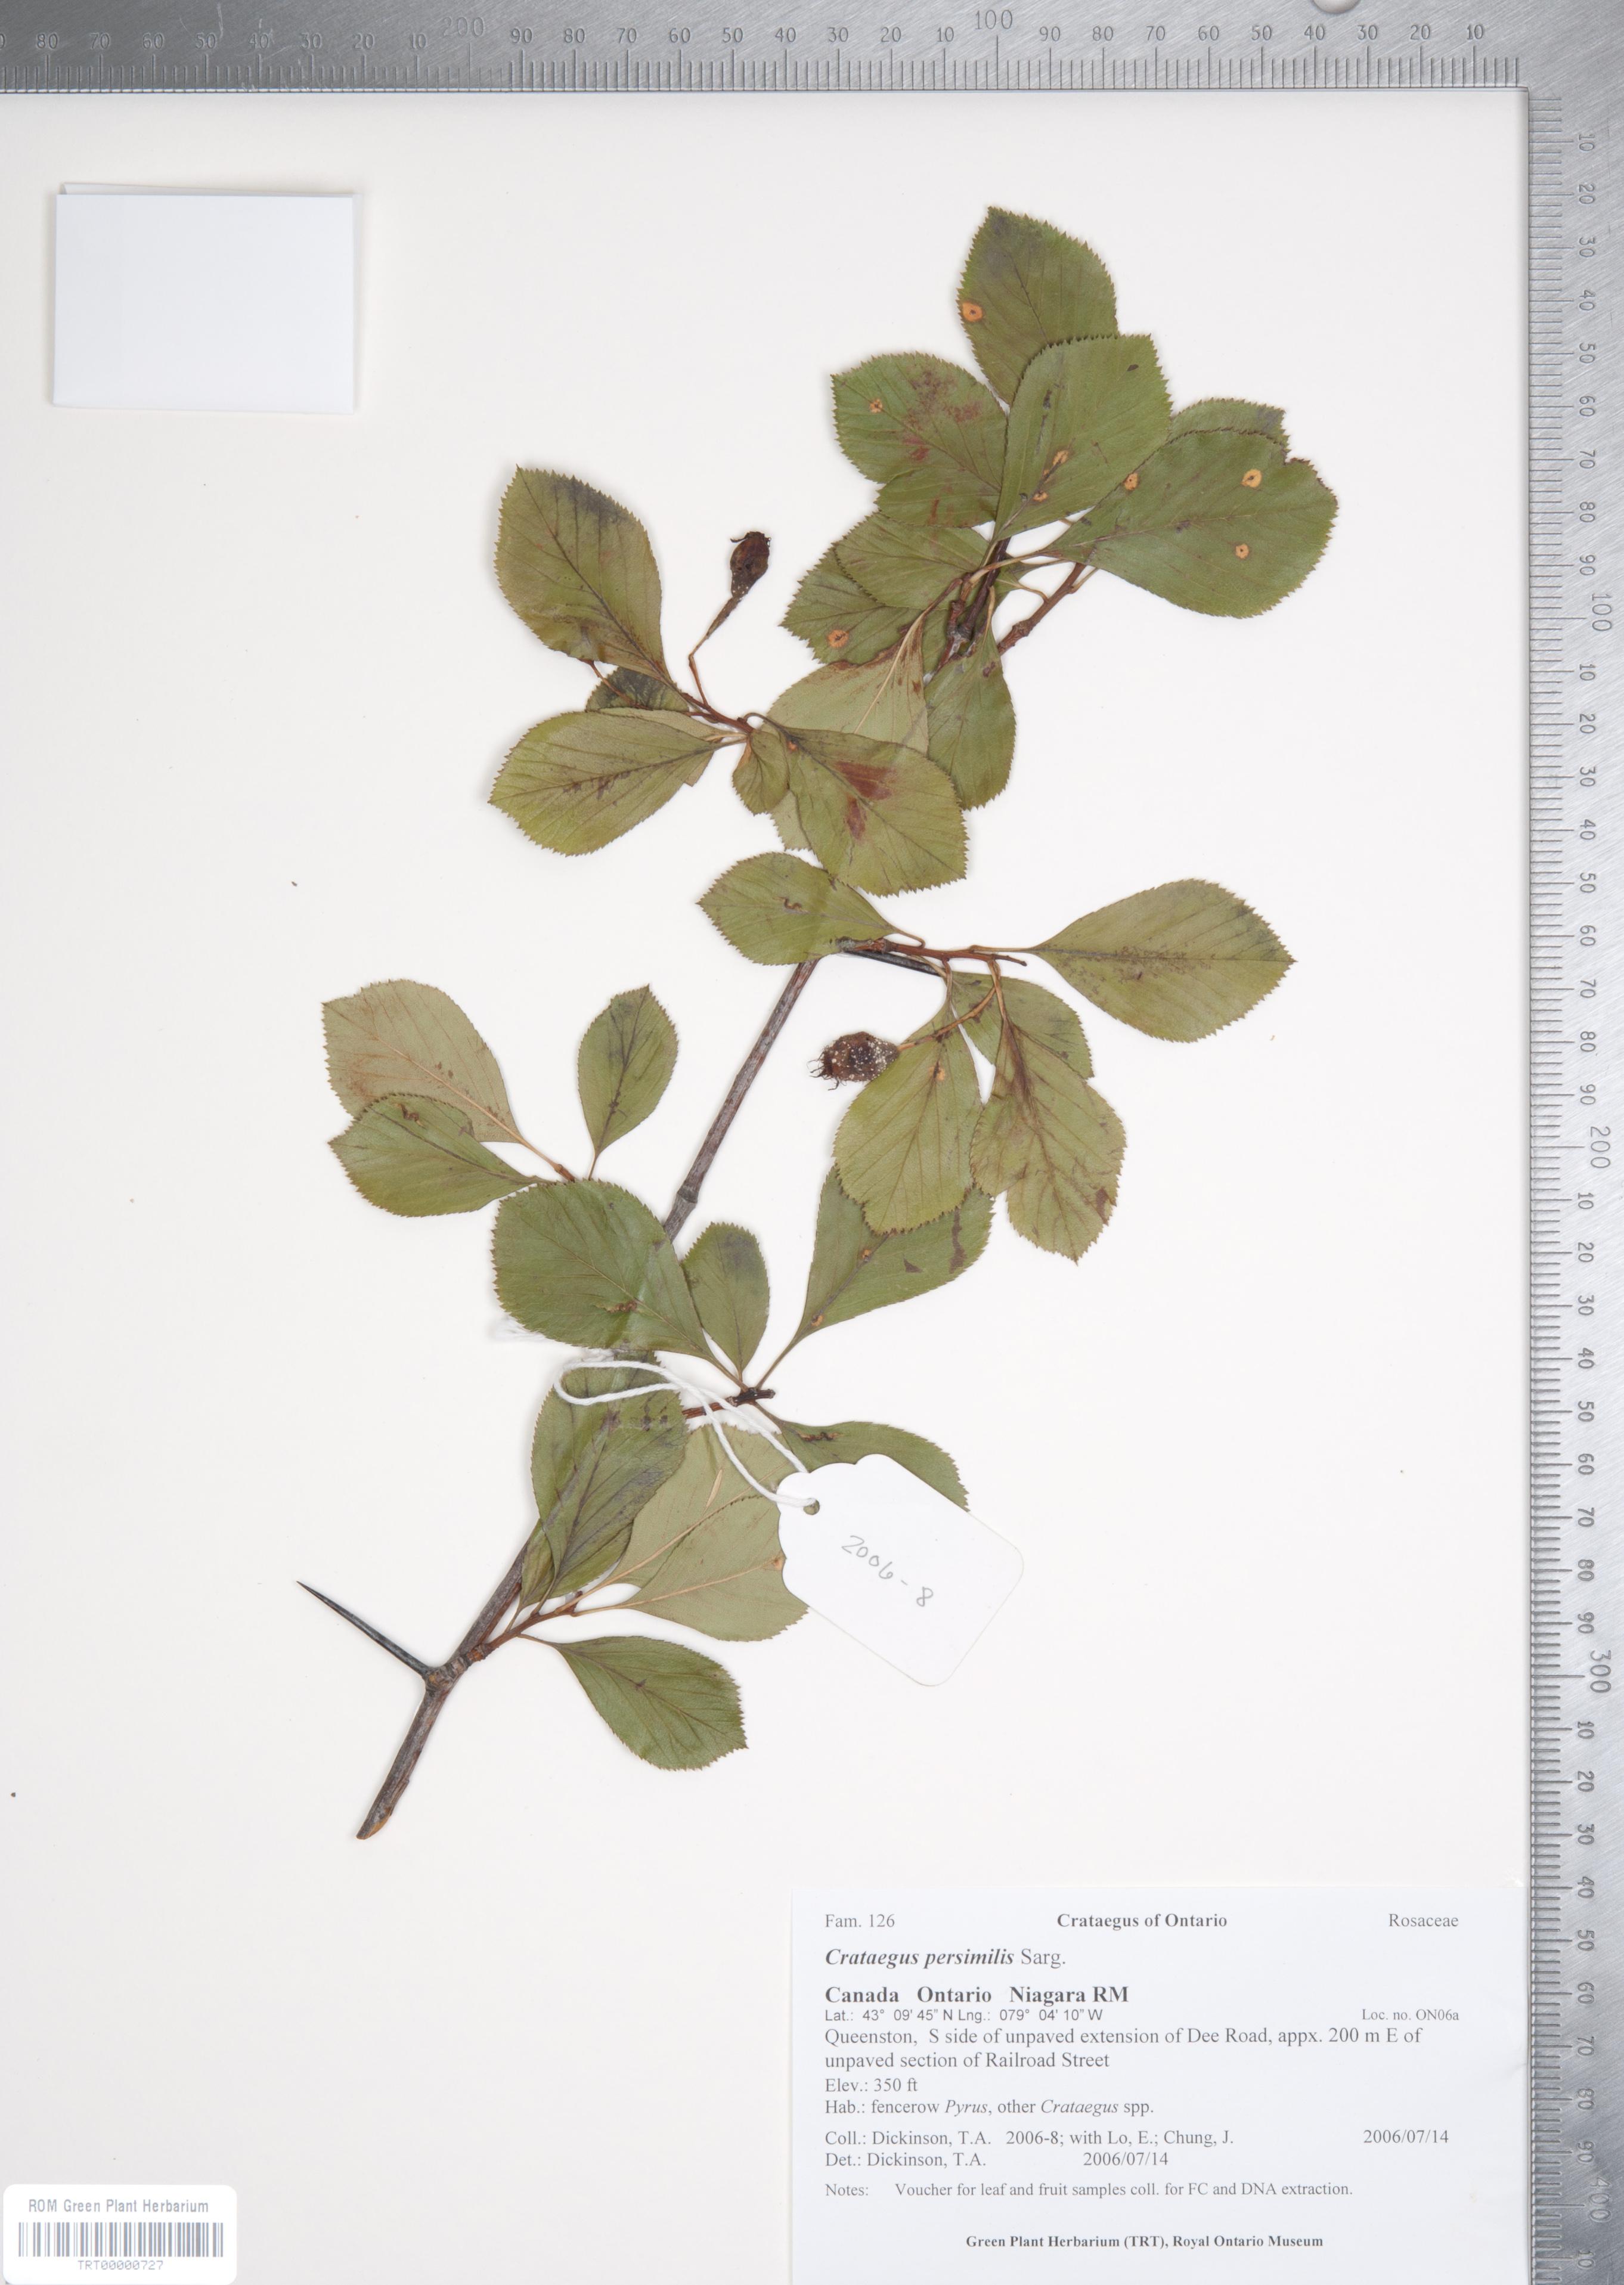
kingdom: Plantae
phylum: Tracheophyta
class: Magnoliopsida
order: Rosales
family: Rosaceae
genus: Crataegus
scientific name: Crataegus persimilis
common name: Broad-leaved cockspurthorn
